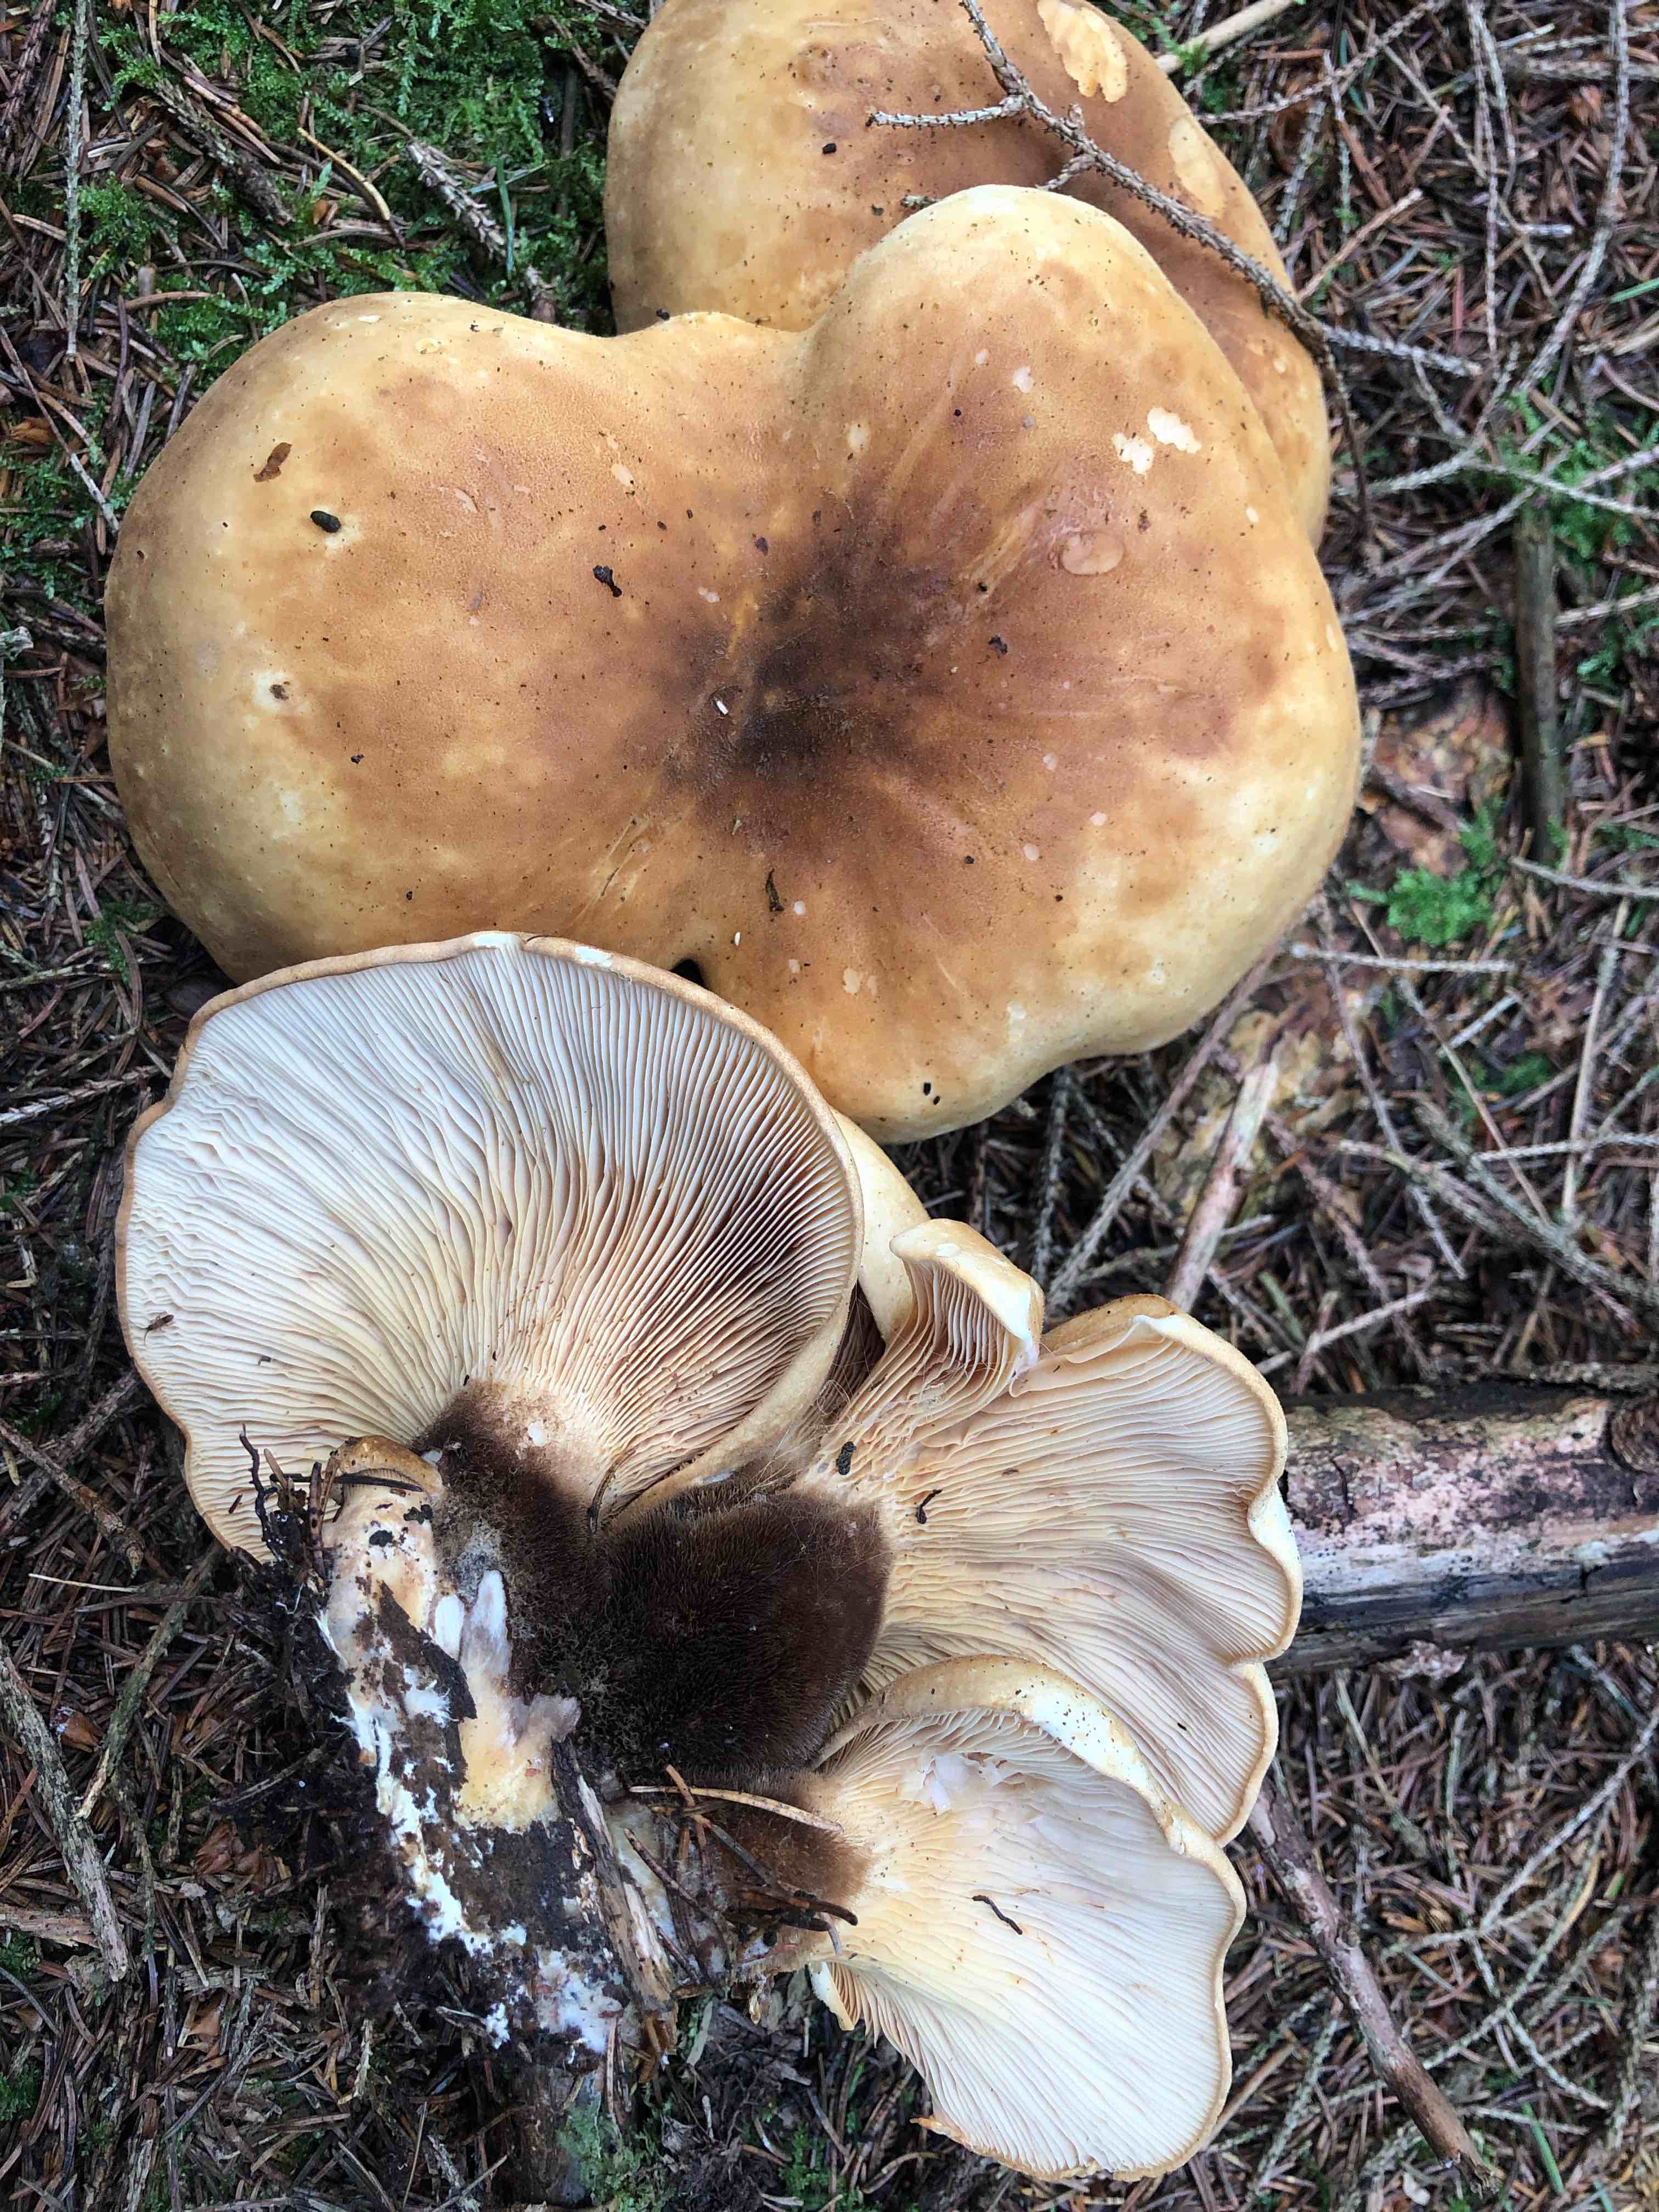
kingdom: Fungi
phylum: Basidiomycota
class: Agaricomycetes
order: Boletales
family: Tapinellaceae
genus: Tapinella
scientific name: Tapinella atrotomentosa
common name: sortfiltet viftesvamp
